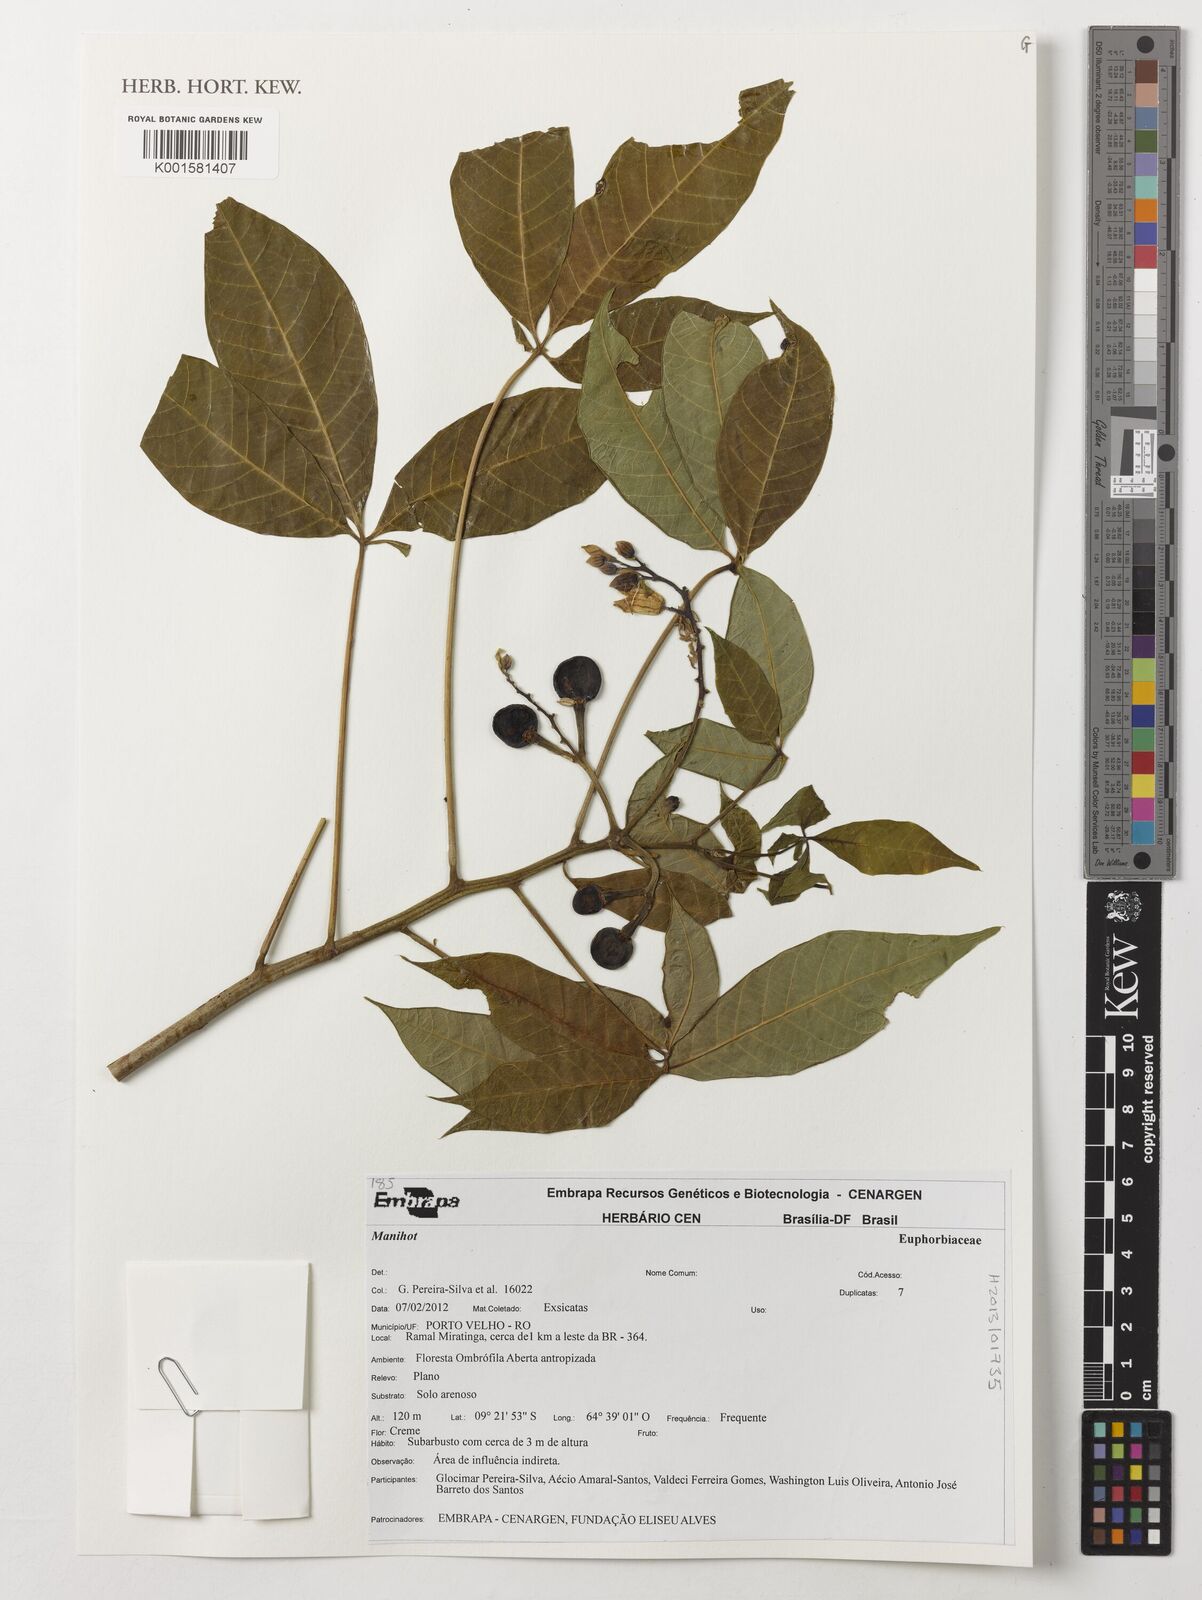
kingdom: Plantae
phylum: Tracheophyta
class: Magnoliopsida
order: Malpighiales
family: Euphorbiaceae
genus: Manihot
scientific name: Manihot
